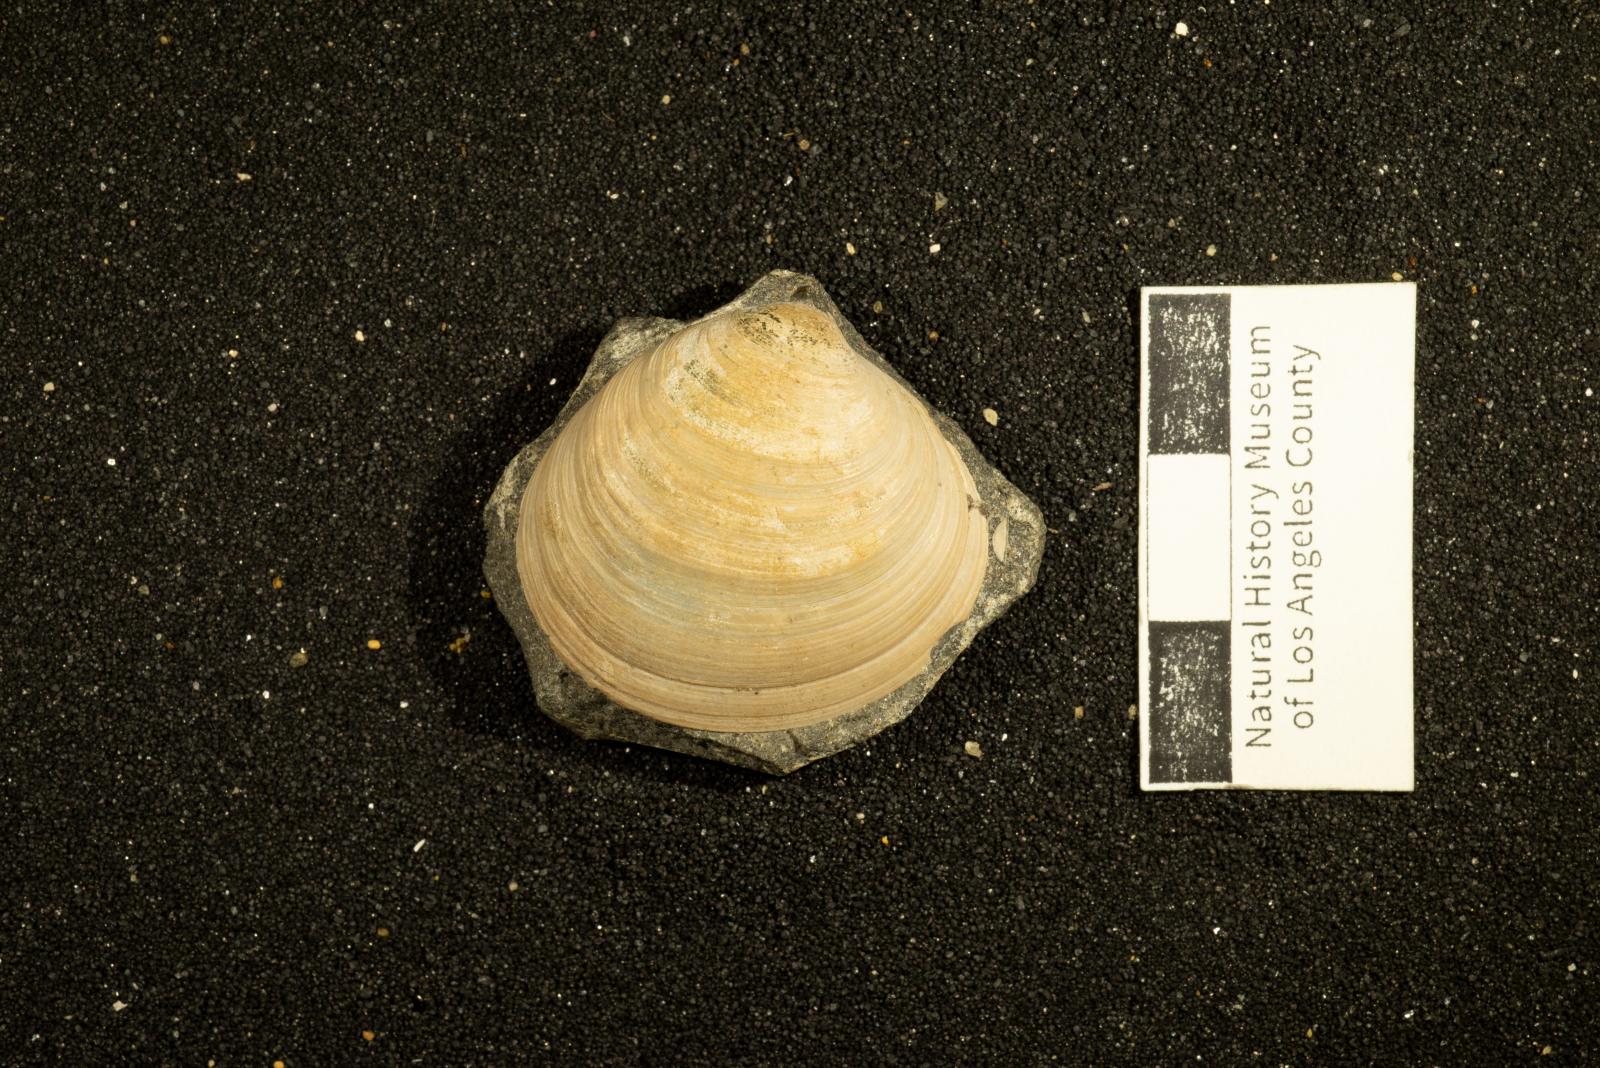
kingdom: Animalia
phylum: Mollusca
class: Bivalvia
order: Venerida
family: Veneridae
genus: Paraesa
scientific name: Paraesa Meretrix lens
